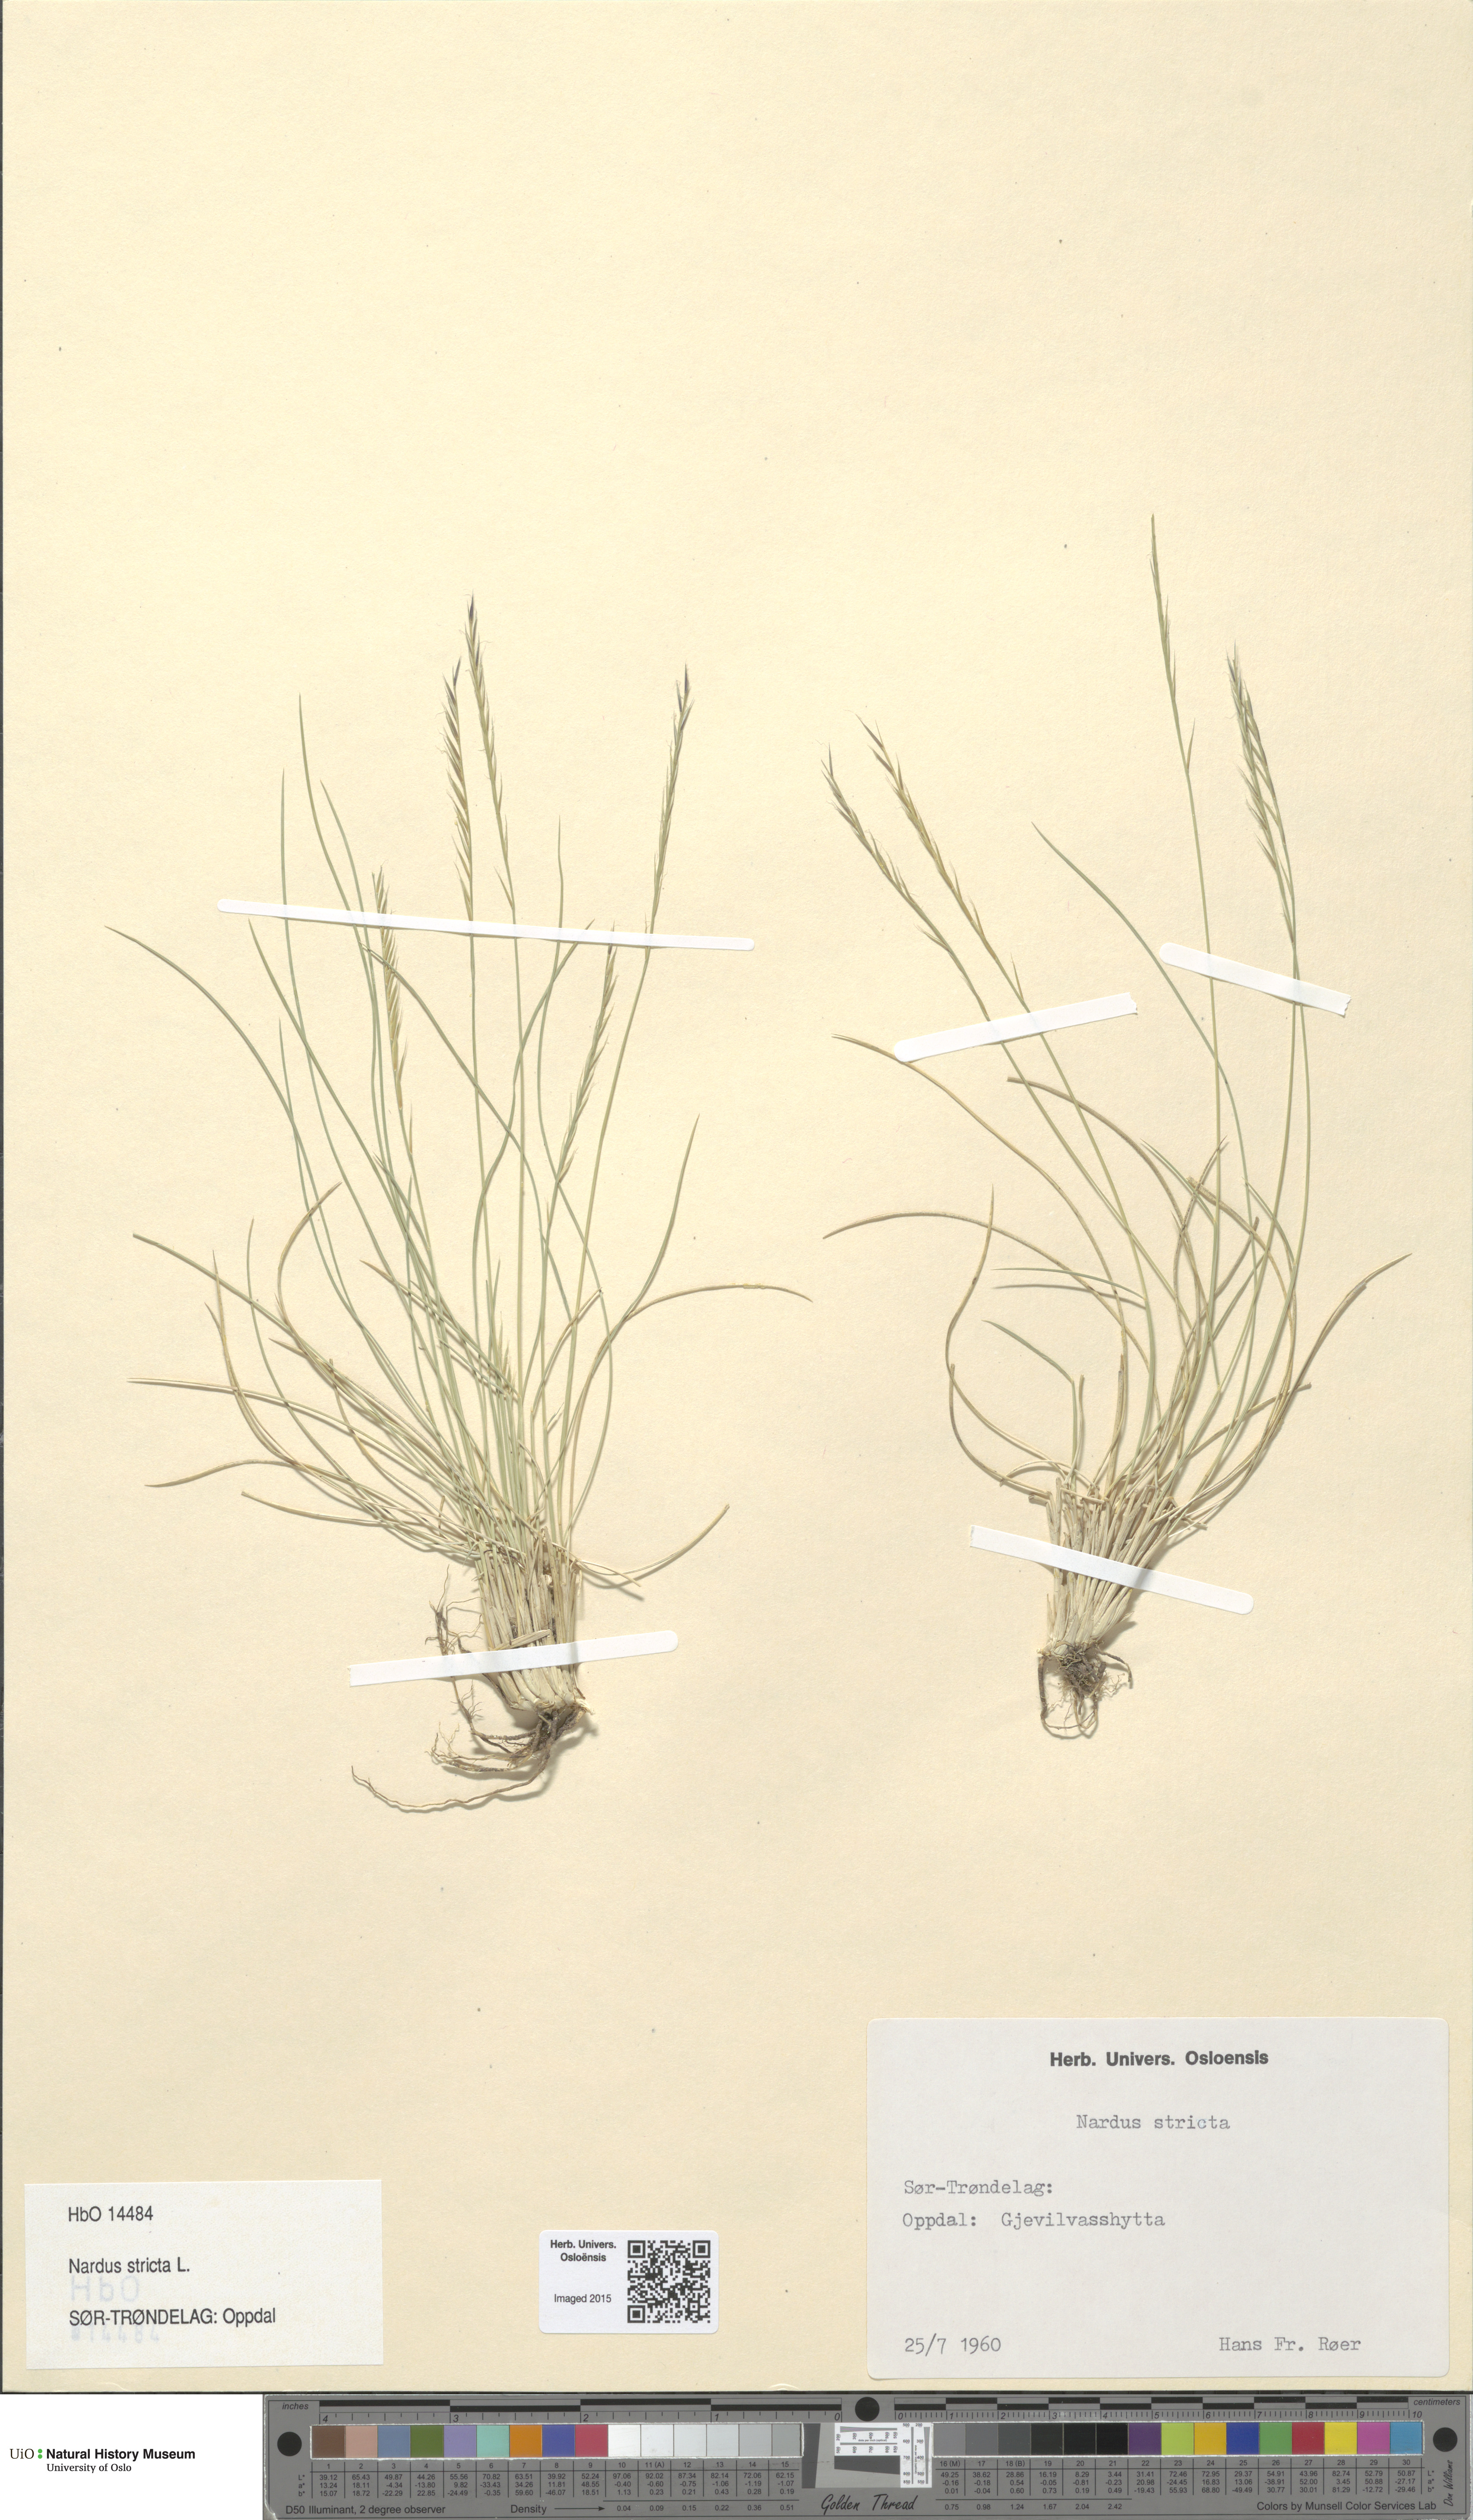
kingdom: Plantae
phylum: Tracheophyta
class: Liliopsida
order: Poales
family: Poaceae
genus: Nardus
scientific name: Nardus stricta
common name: Mat-grass
